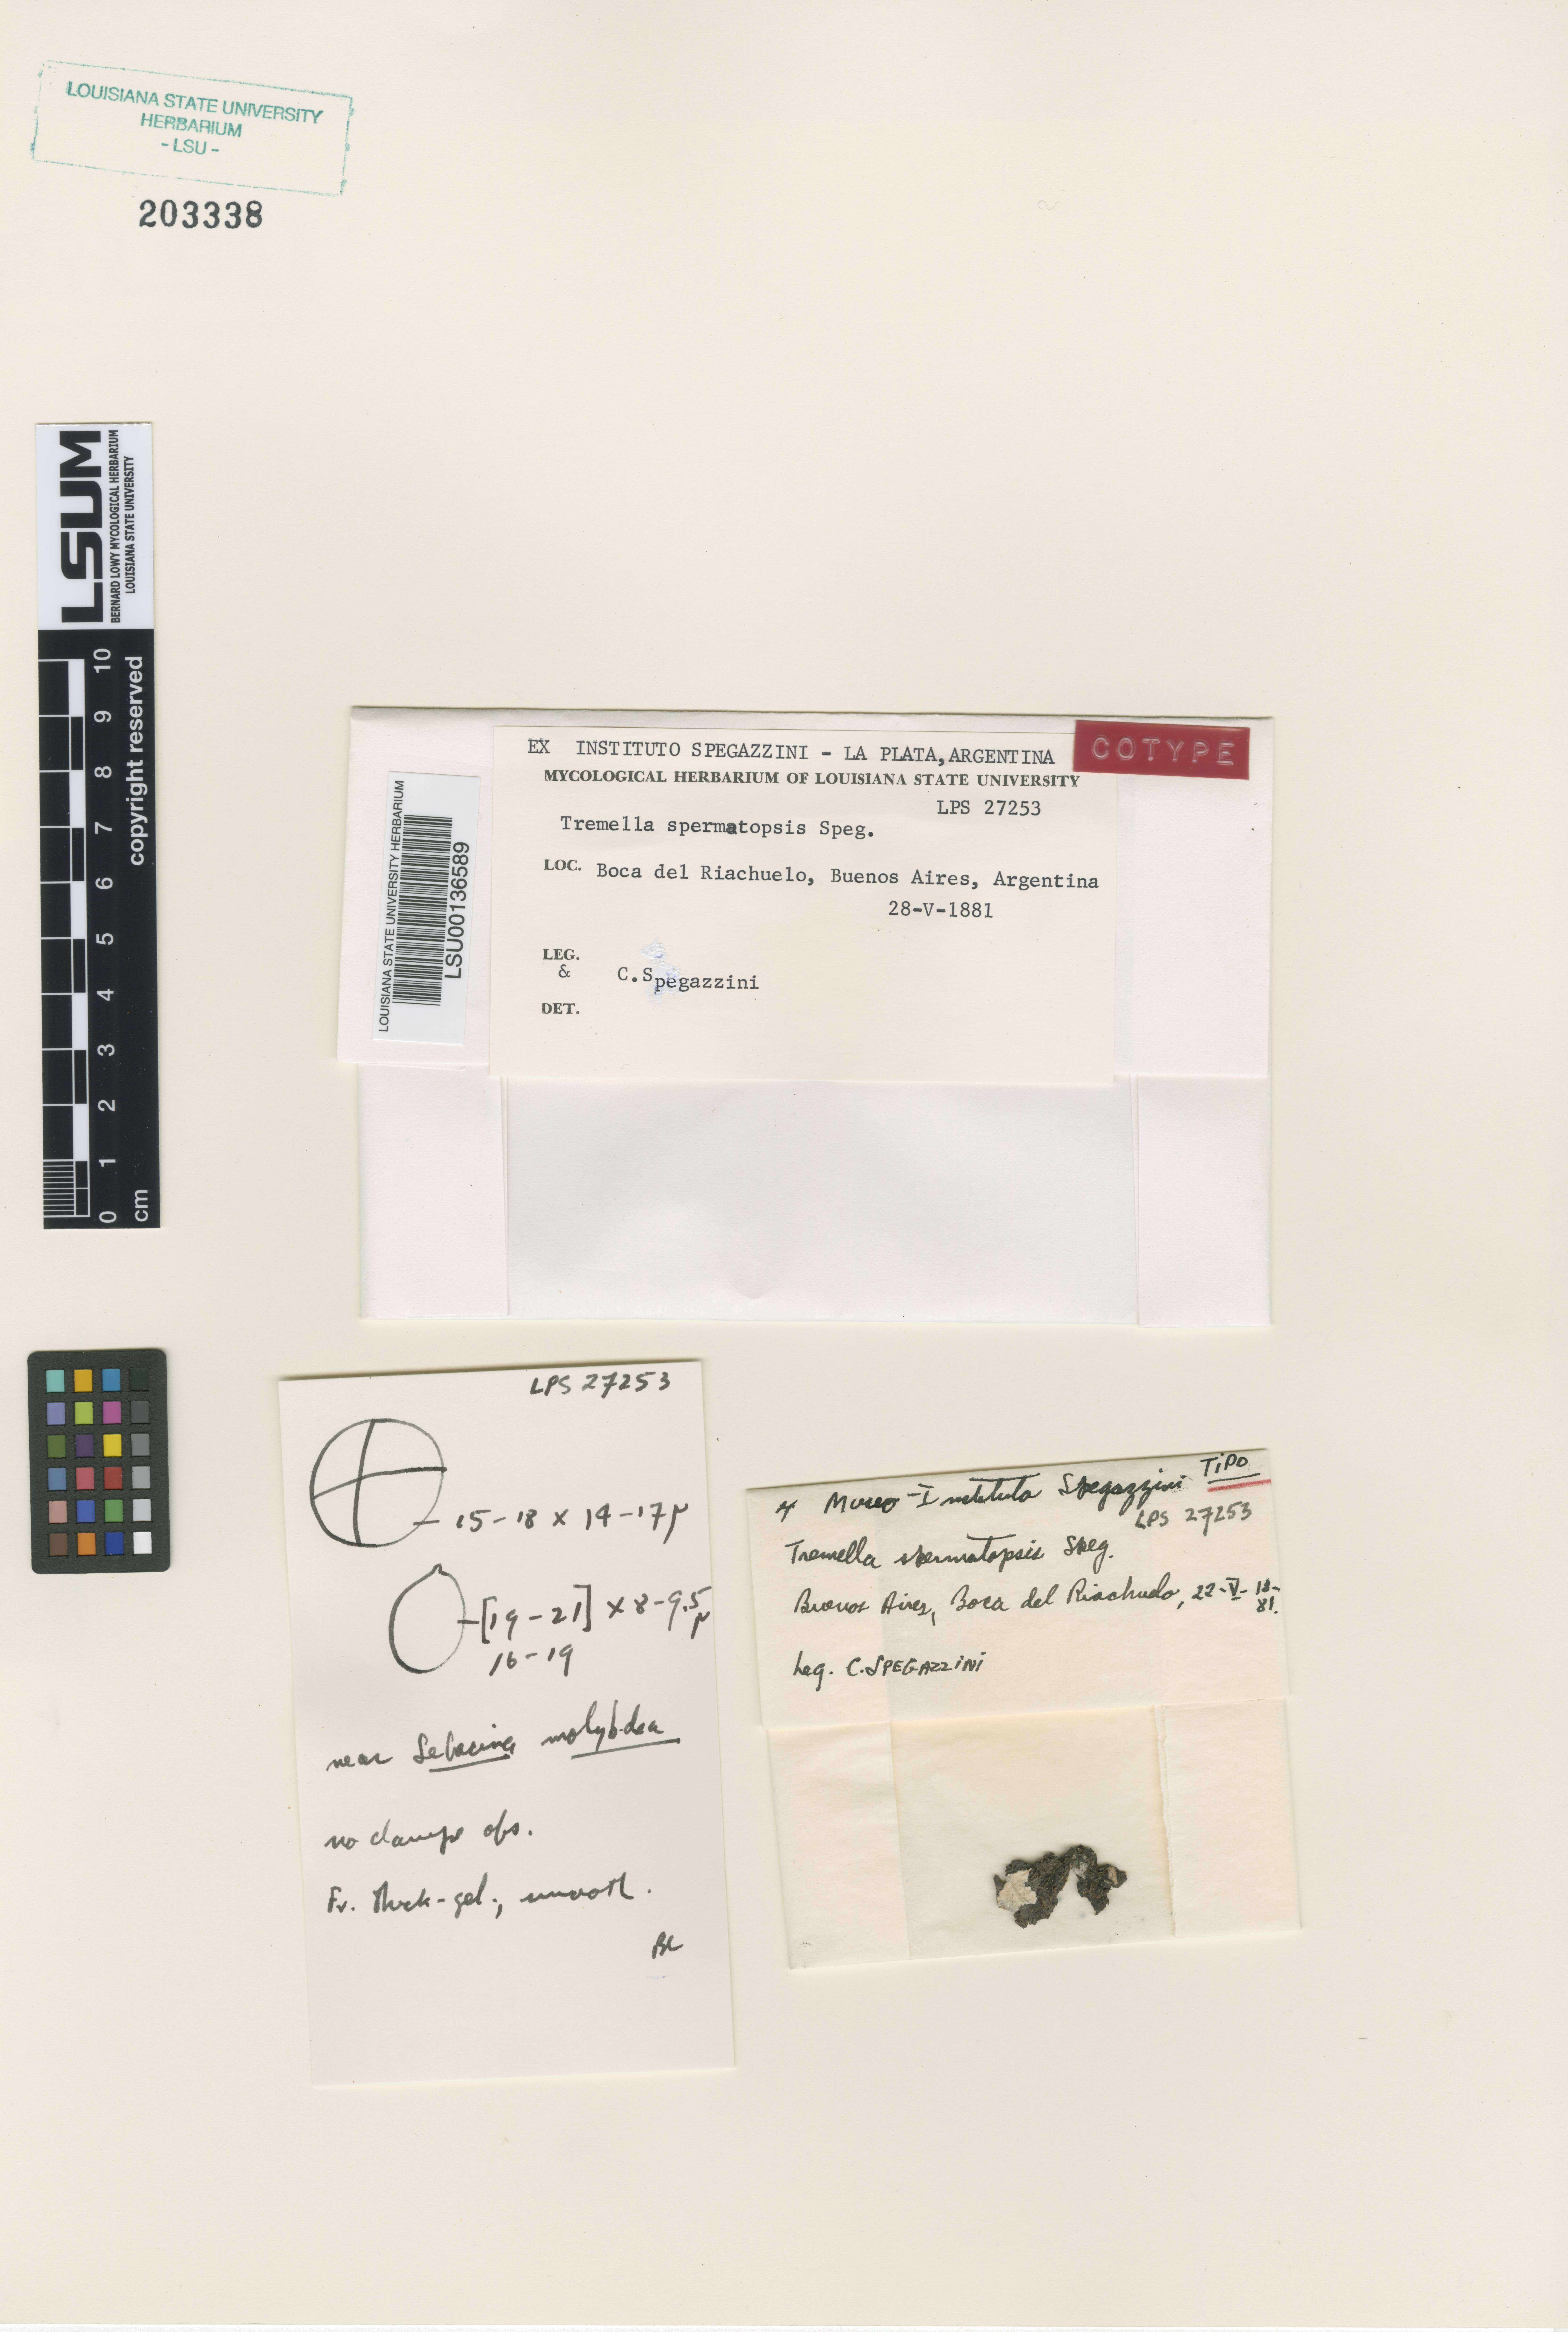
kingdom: Fungi
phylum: Basidiomycota
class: Tremellomycetes
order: Tremellales
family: Tremellaceae
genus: Tremella
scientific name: Tremella
